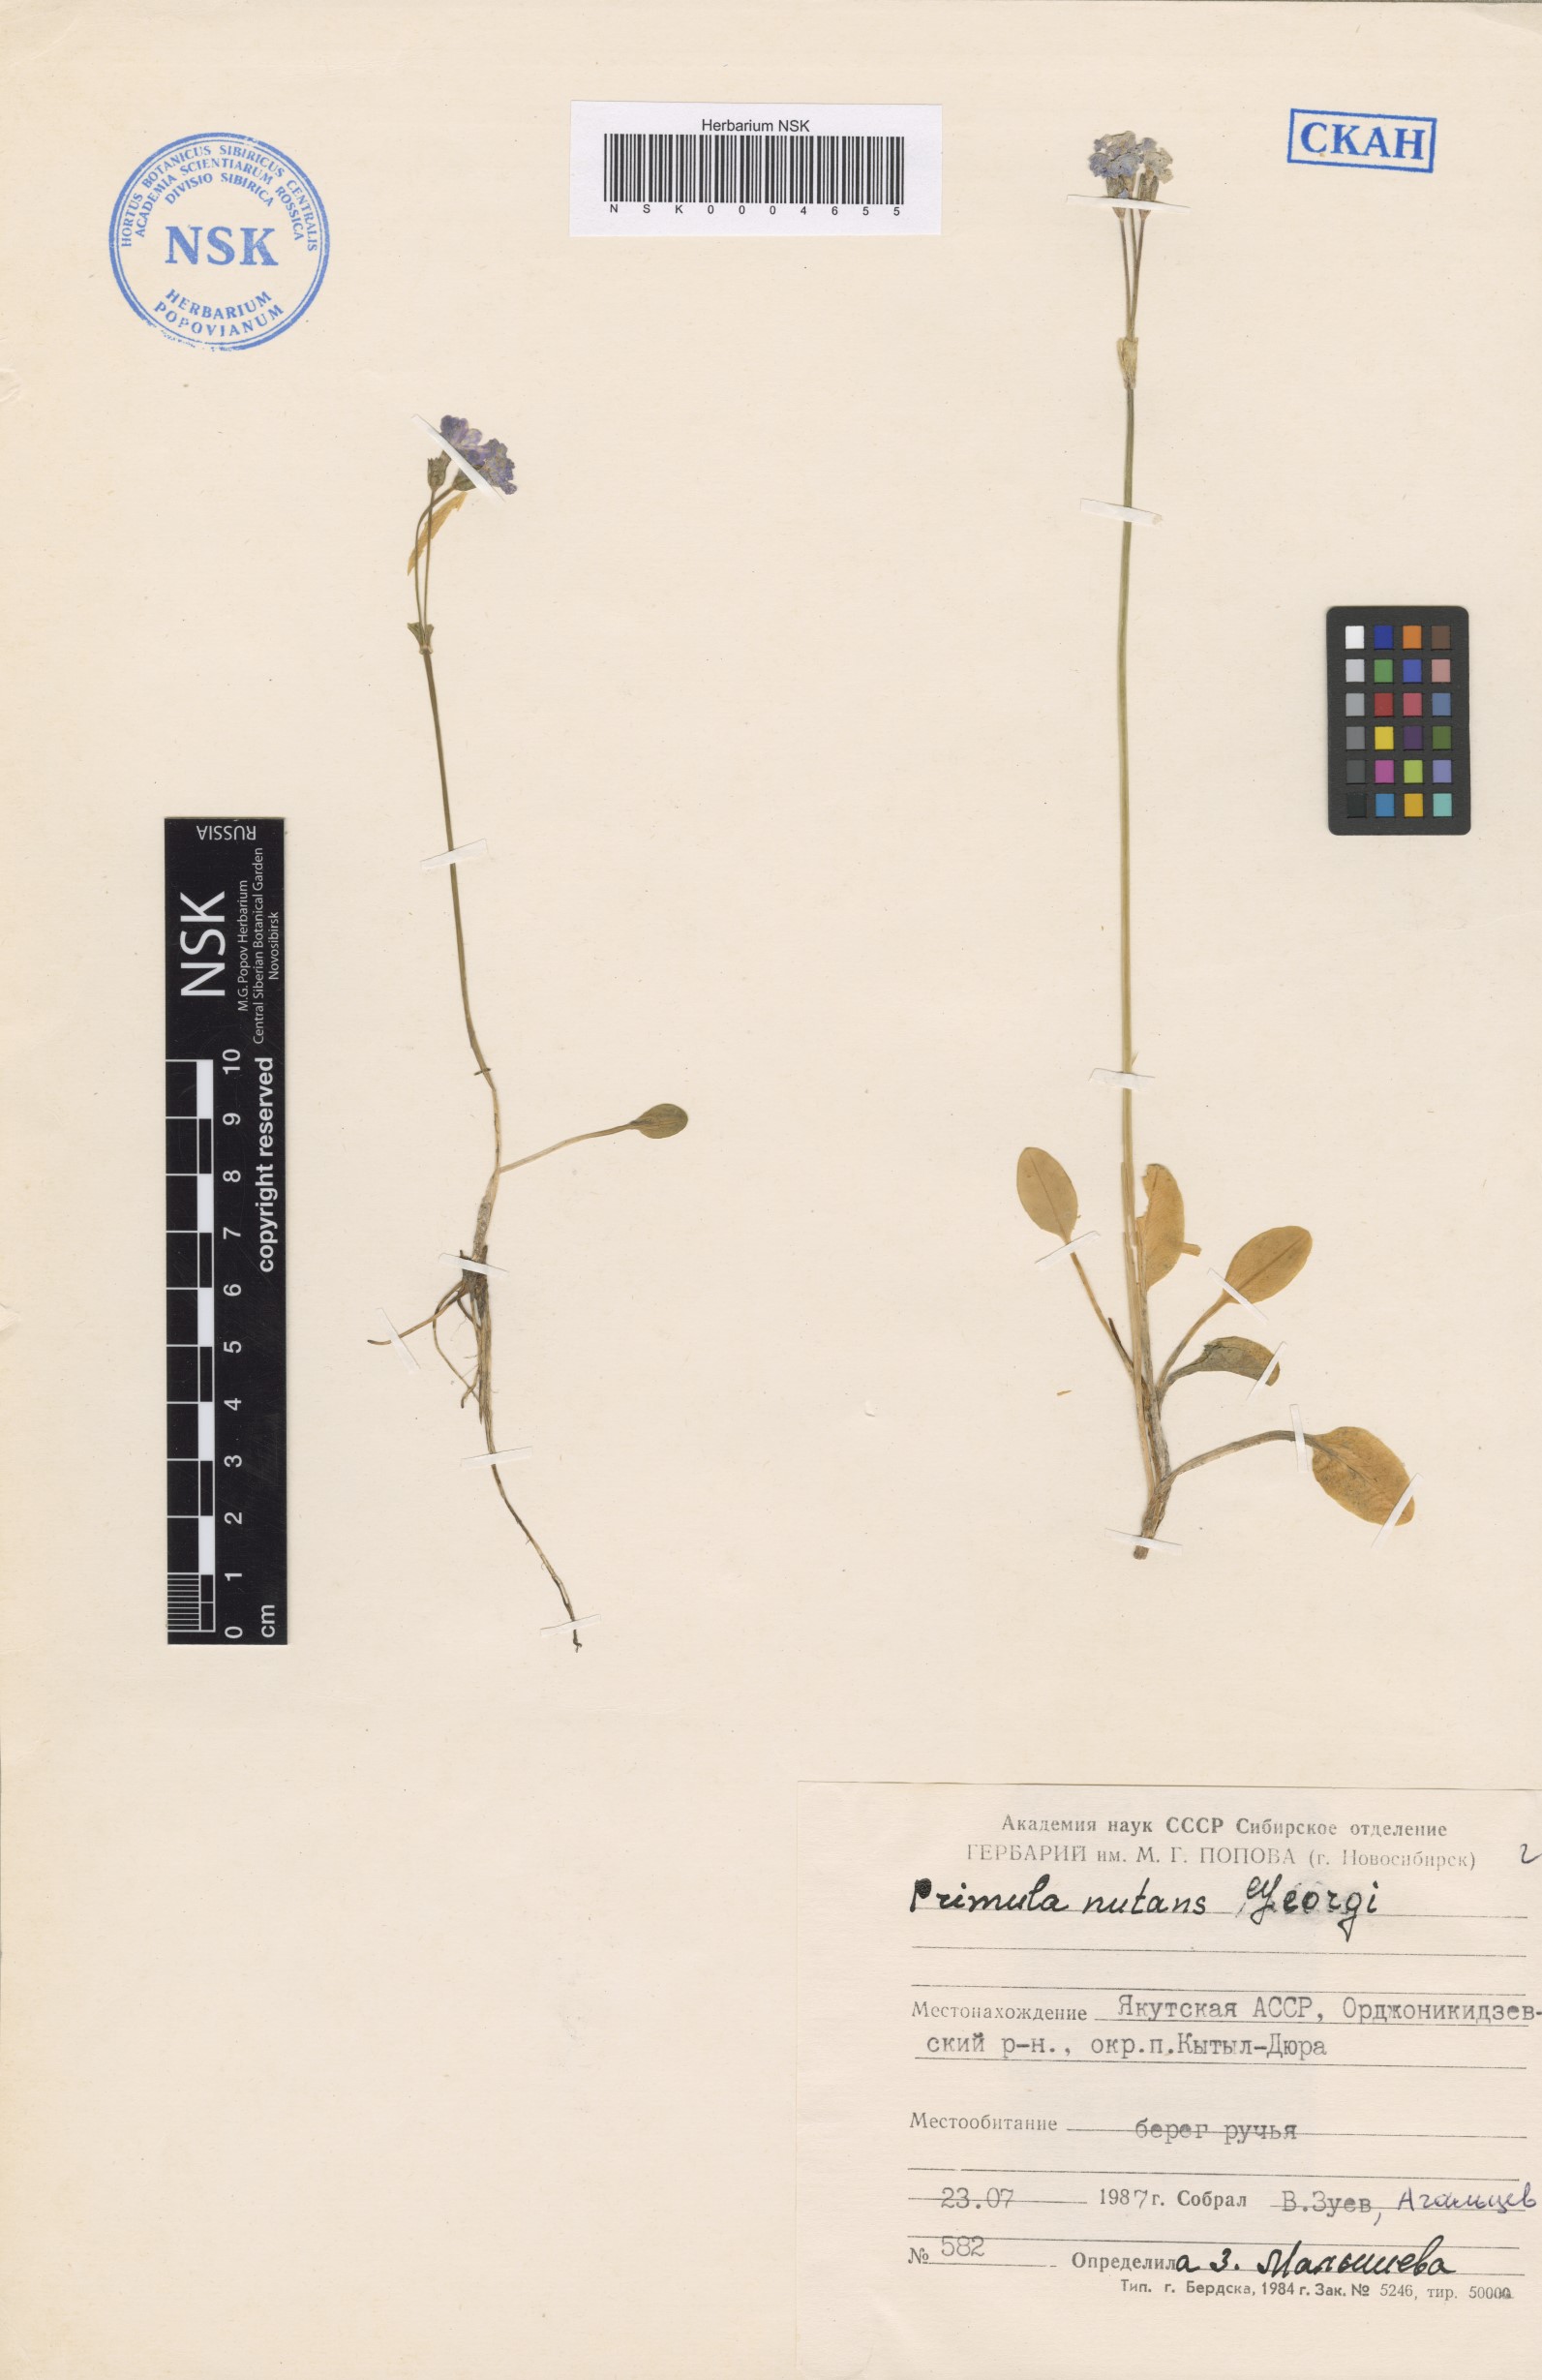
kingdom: Plantae
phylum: Tracheophyta
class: Magnoliopsida
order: Ericales
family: Primulaceae
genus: Primula
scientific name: Primula nutans
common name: Siberian primrose
